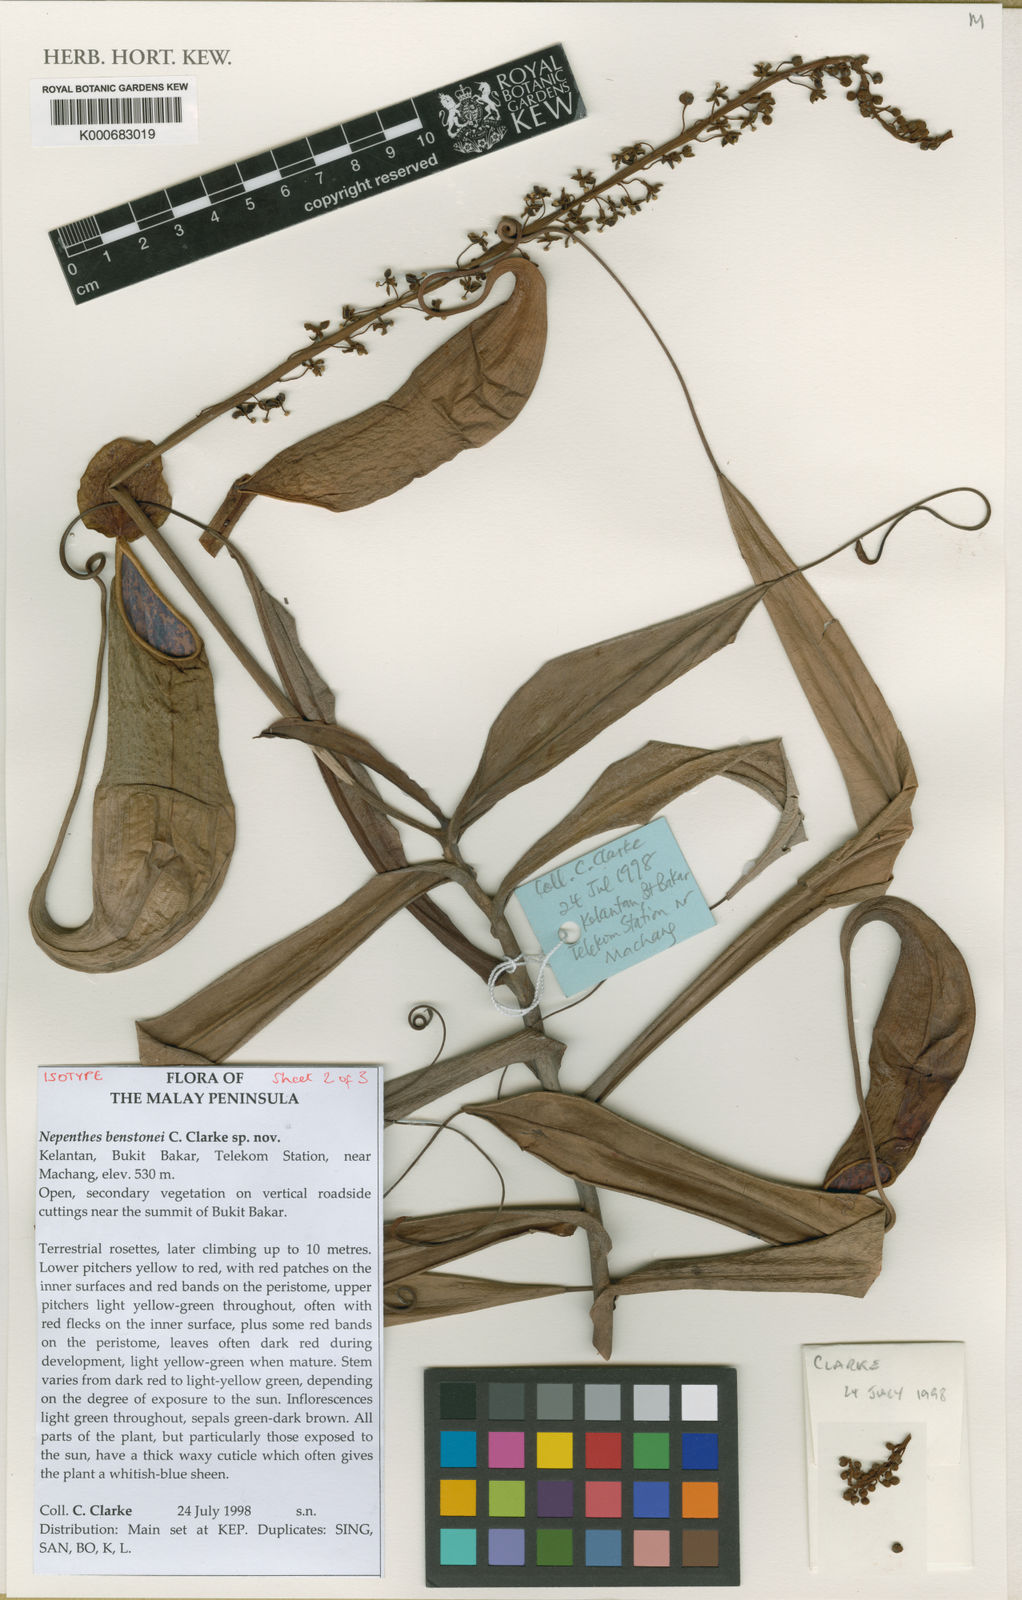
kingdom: Plantae
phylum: Tracheophyta
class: Magnoliopsida
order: Caryophyllales
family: Nepenthaceae
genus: Nepenthes
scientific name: Nepenthes benstonei
